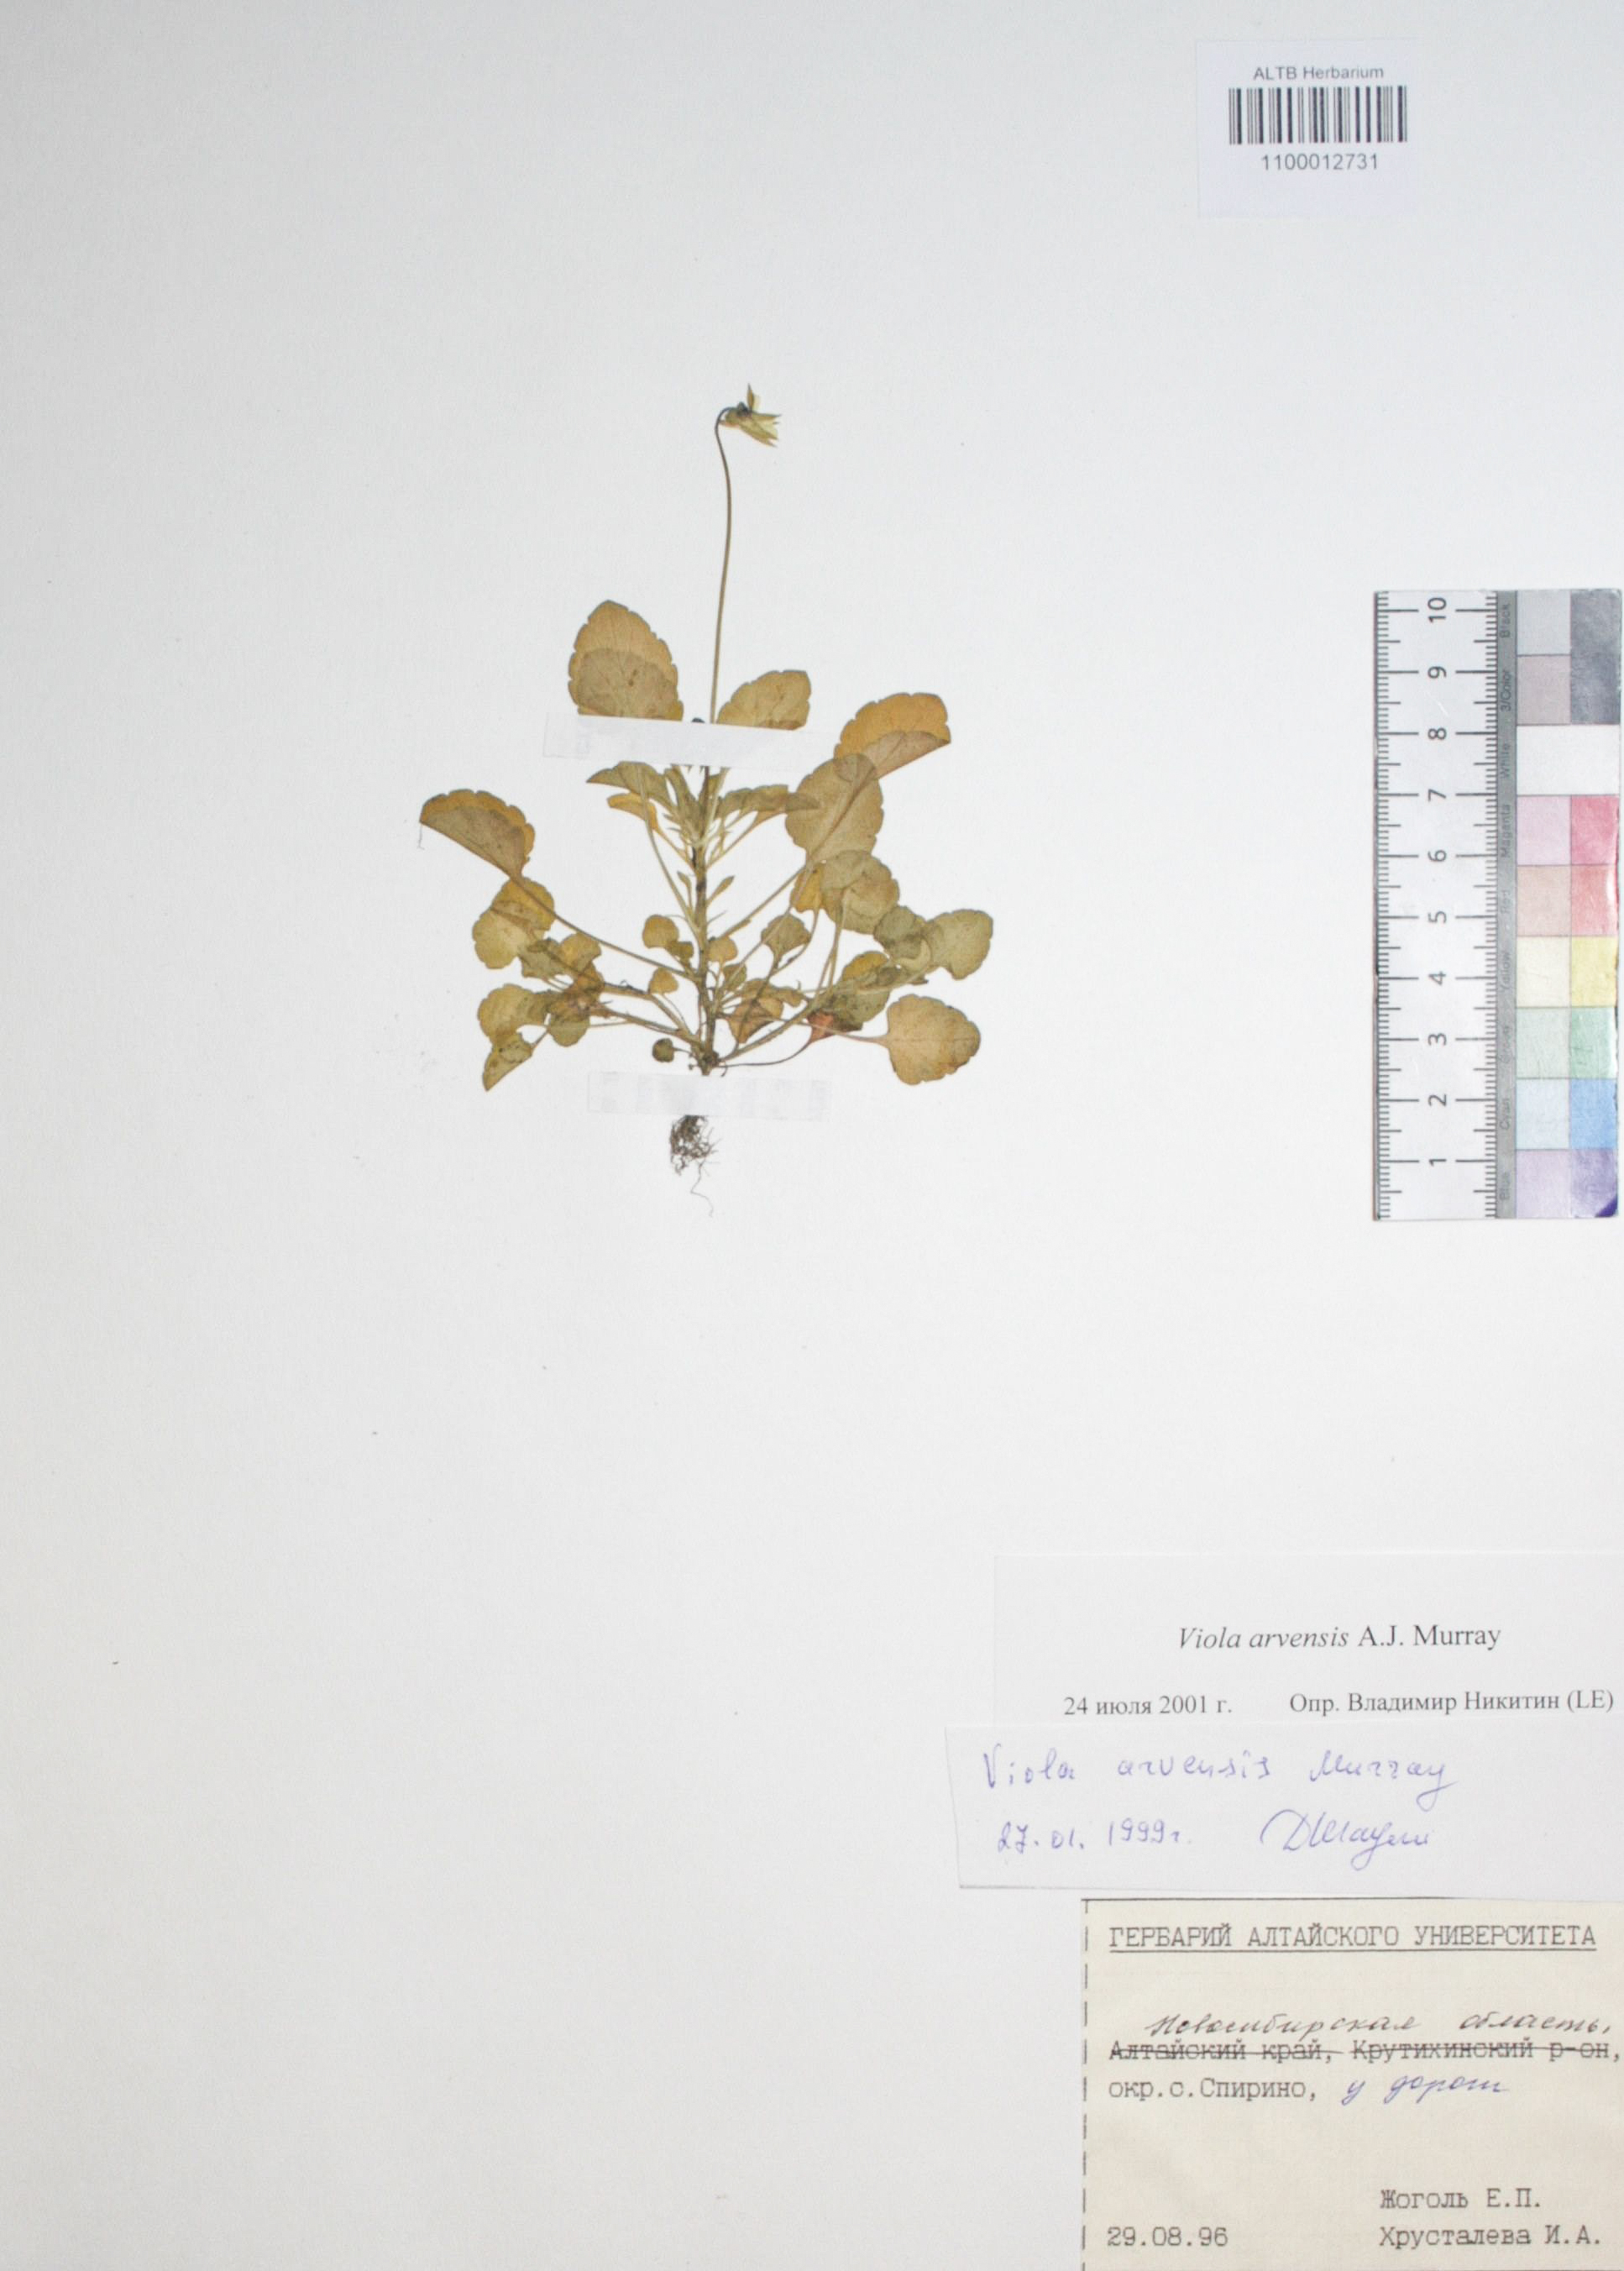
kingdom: Plantae
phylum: Tracheophyta
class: Magnoliopsida
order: Malpighiales
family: Violaceae
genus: Viola
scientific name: Viola arvensis
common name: Field pansy
